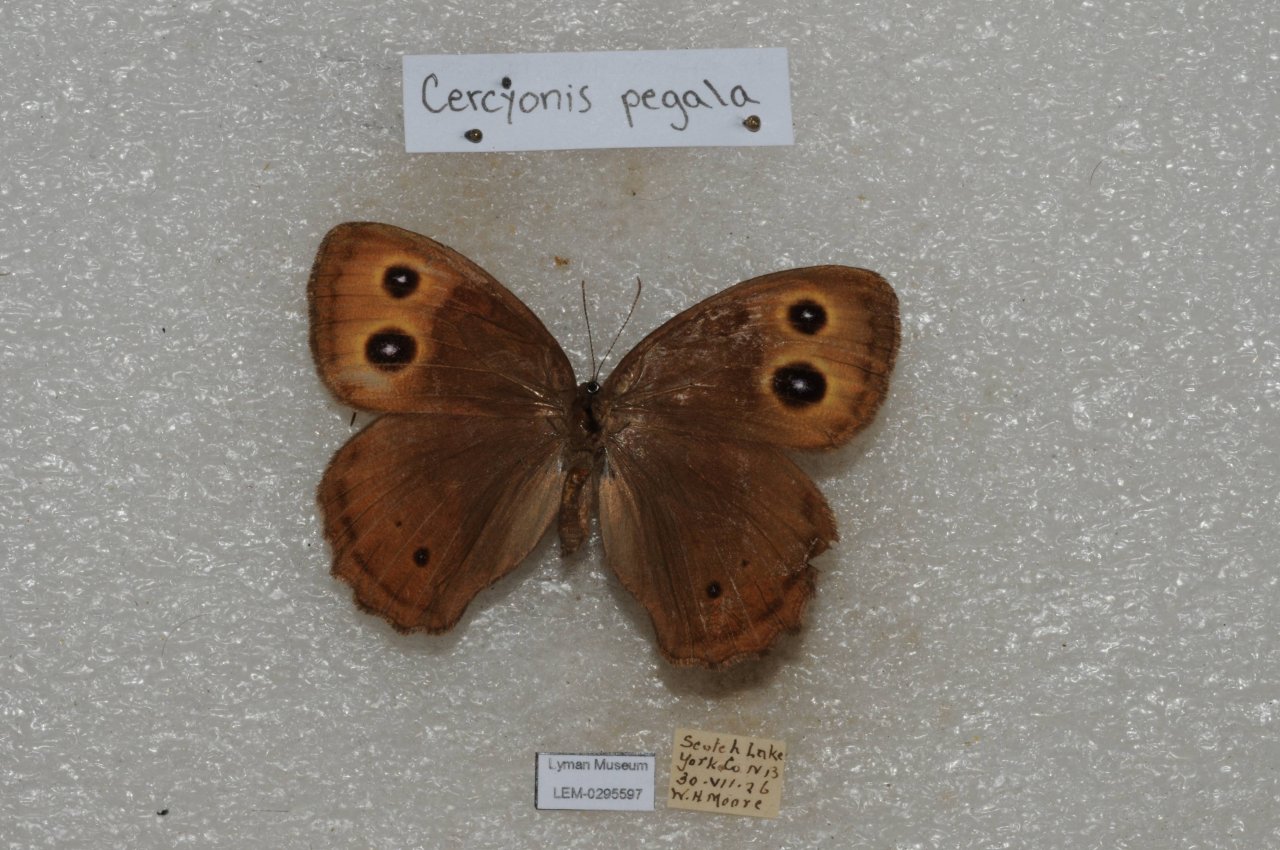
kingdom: Animalia
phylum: Arthropoda
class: Insecta
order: Lepidoptera
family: Nymphalidae
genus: Cercyonis
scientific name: Cercyonis pegala
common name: Common Wood-Nymph
